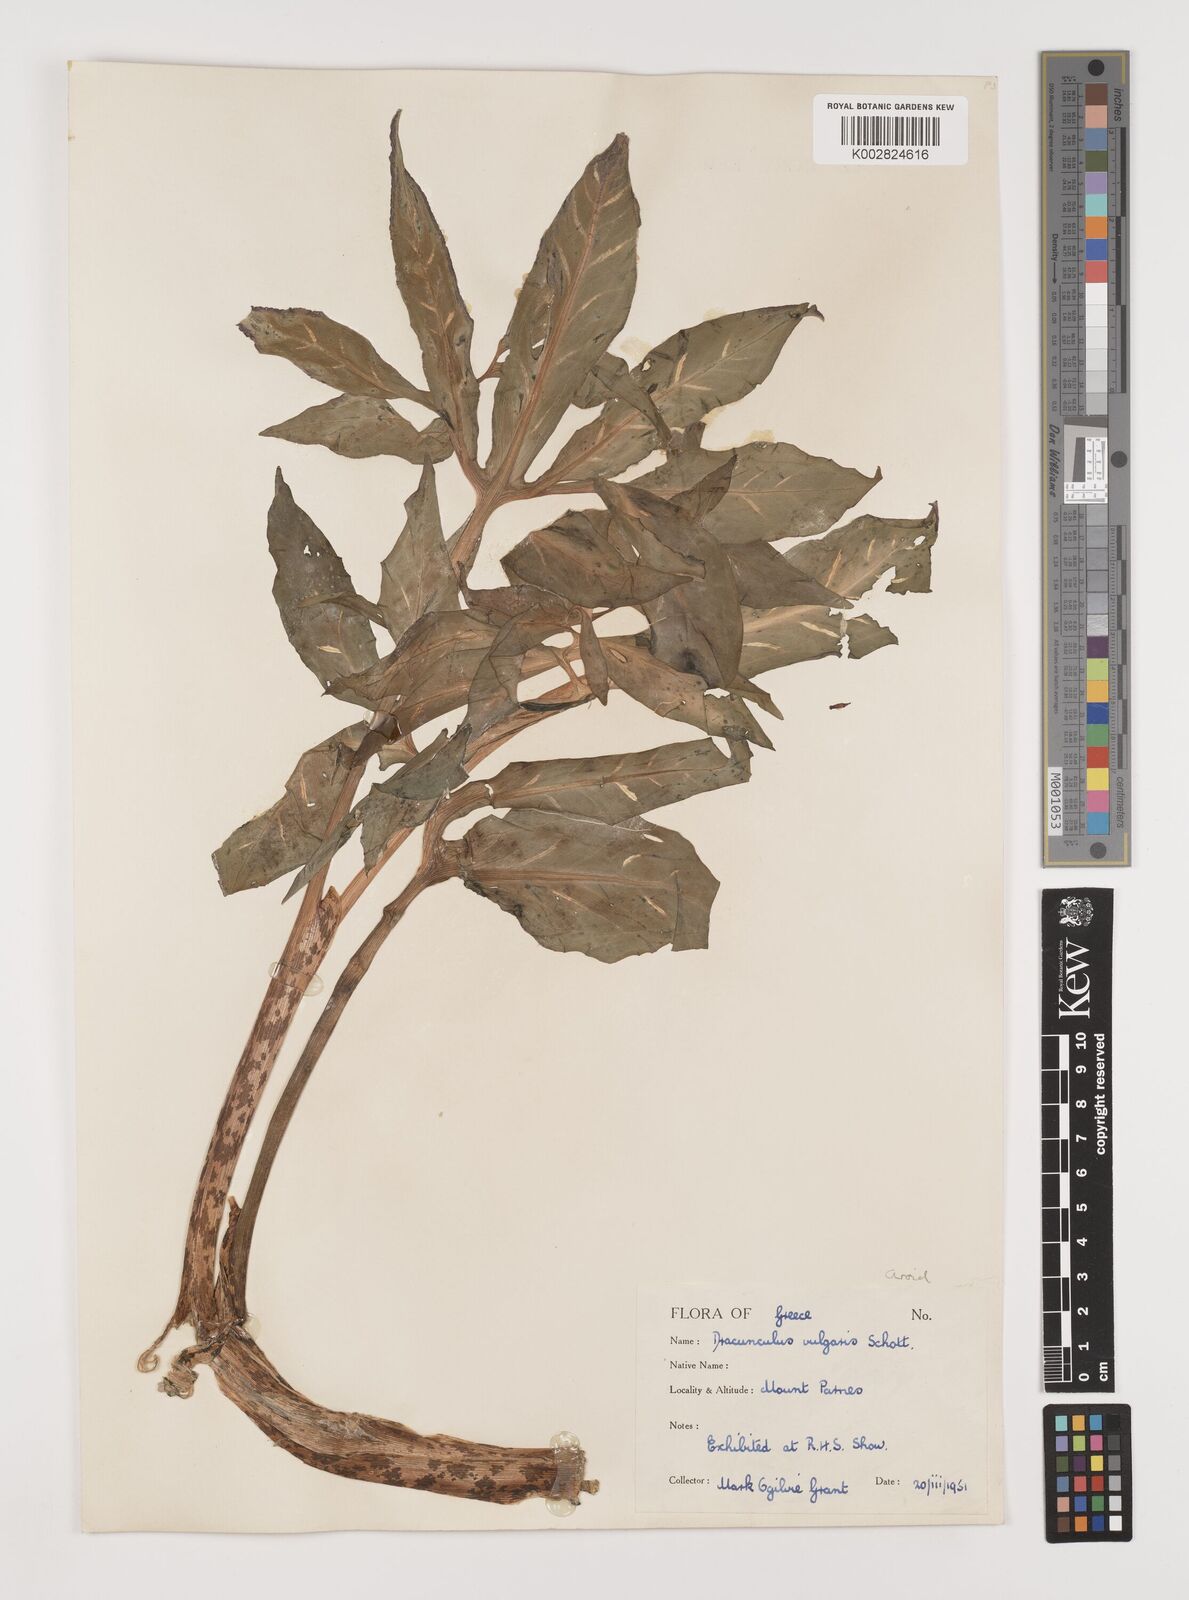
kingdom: Plantae
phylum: Tracheophyta
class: Liliopsida
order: Alismatales
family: Araceae
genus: Dracunculus
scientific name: Dracunculus vulgaris
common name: Dragon arum
